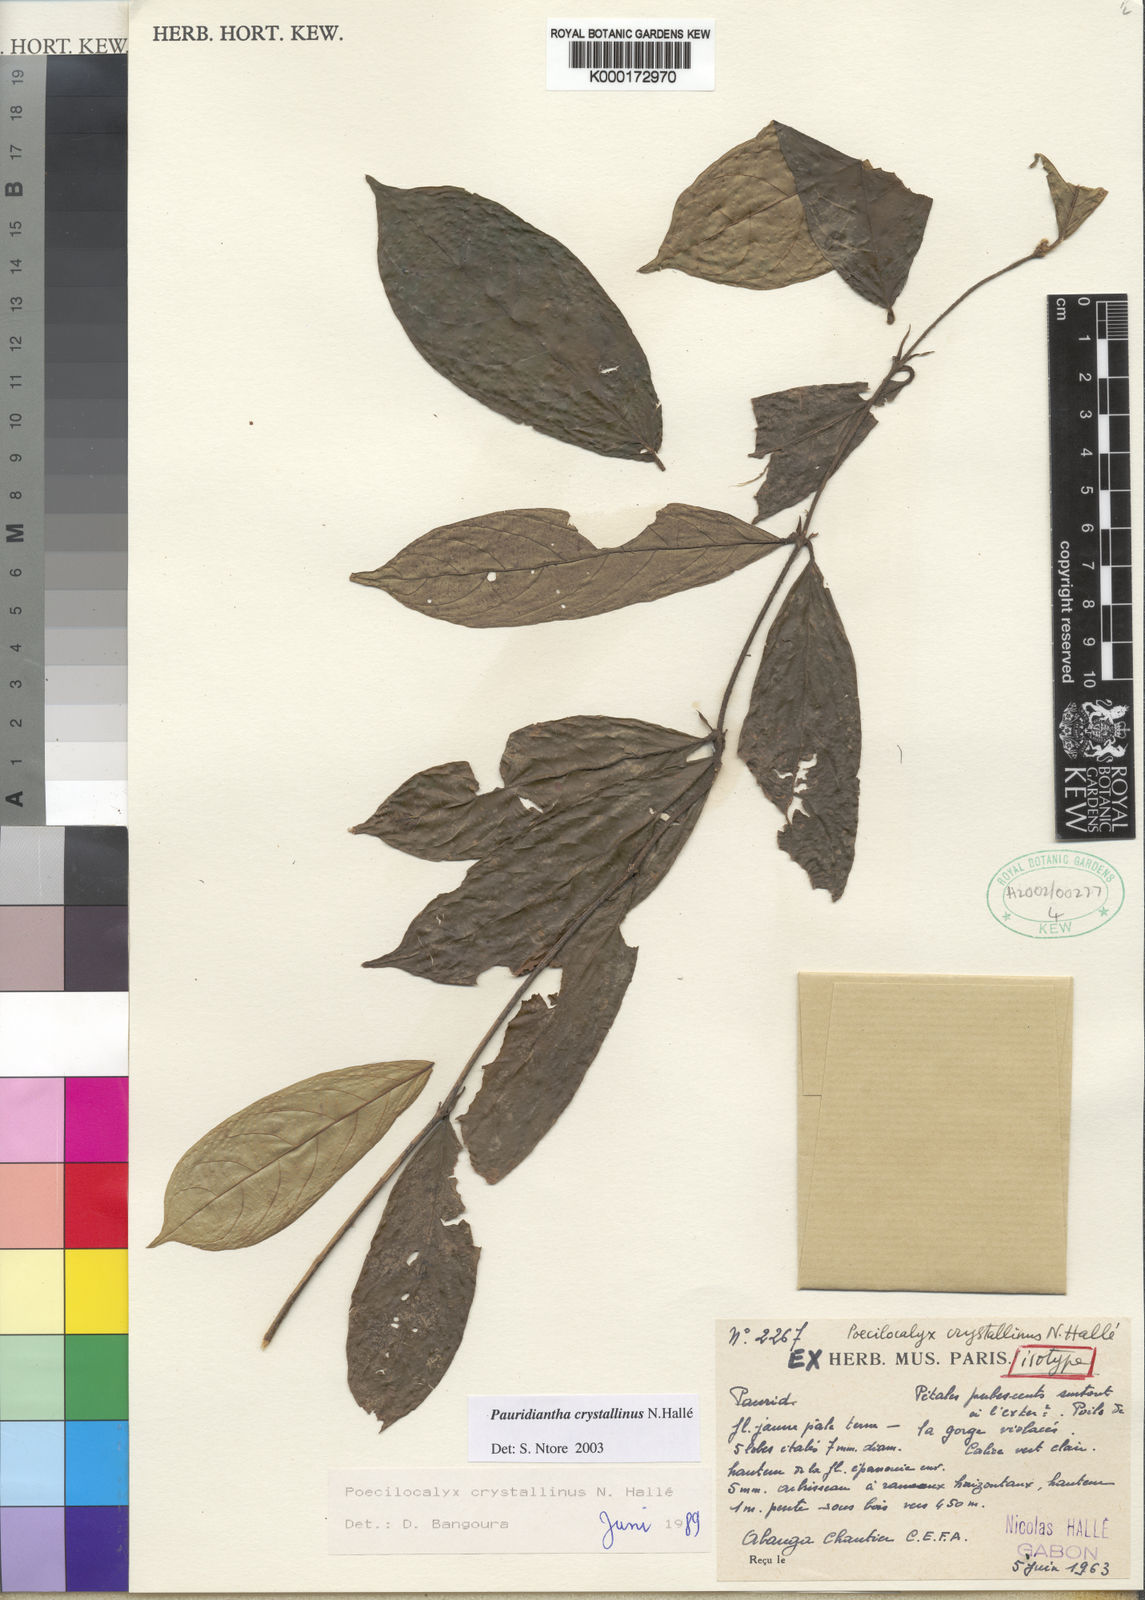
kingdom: Plantae
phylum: Tracheophyta
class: Magnoliopsida
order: Gentianales
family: Rubiaceae
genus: Pauridiantha
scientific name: Pauridiantha crystallina
